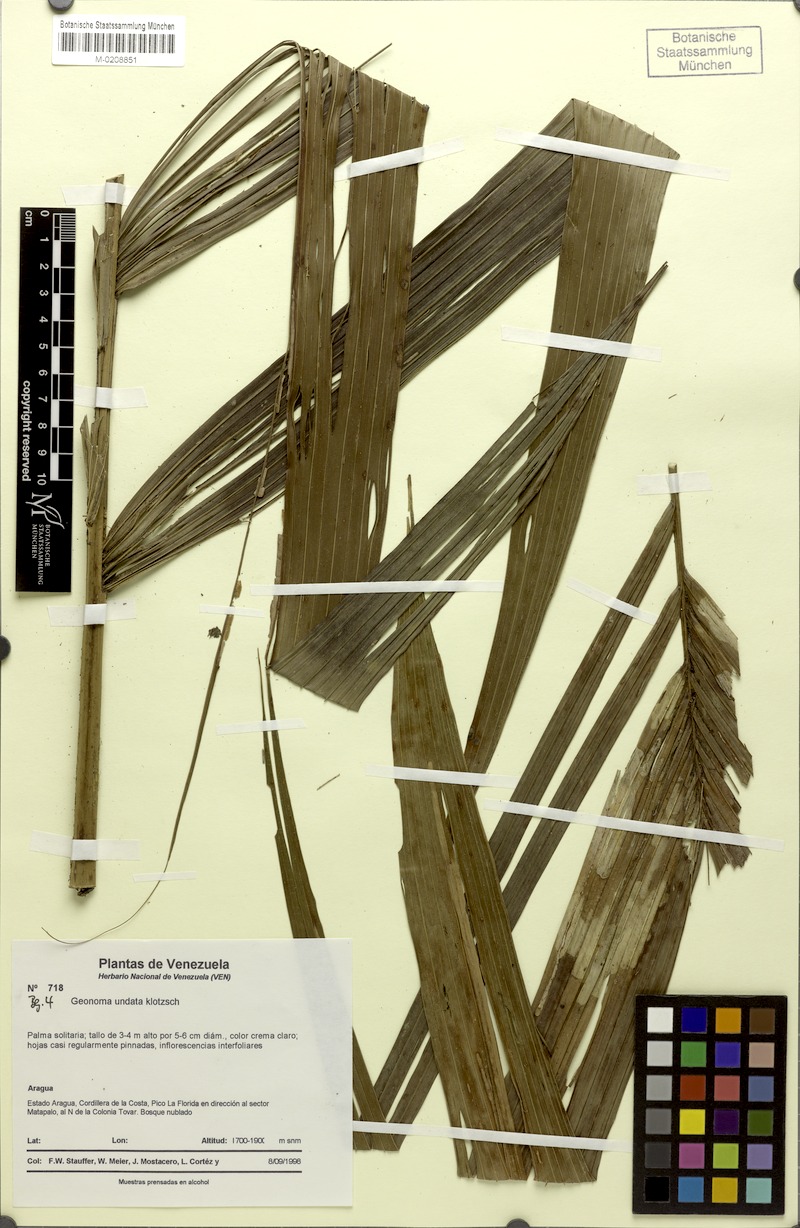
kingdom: Plantae
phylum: Tracheophyta
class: Liliopsida
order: Arecales
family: Arecaceae
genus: Geonoma
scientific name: Geonoma undata
